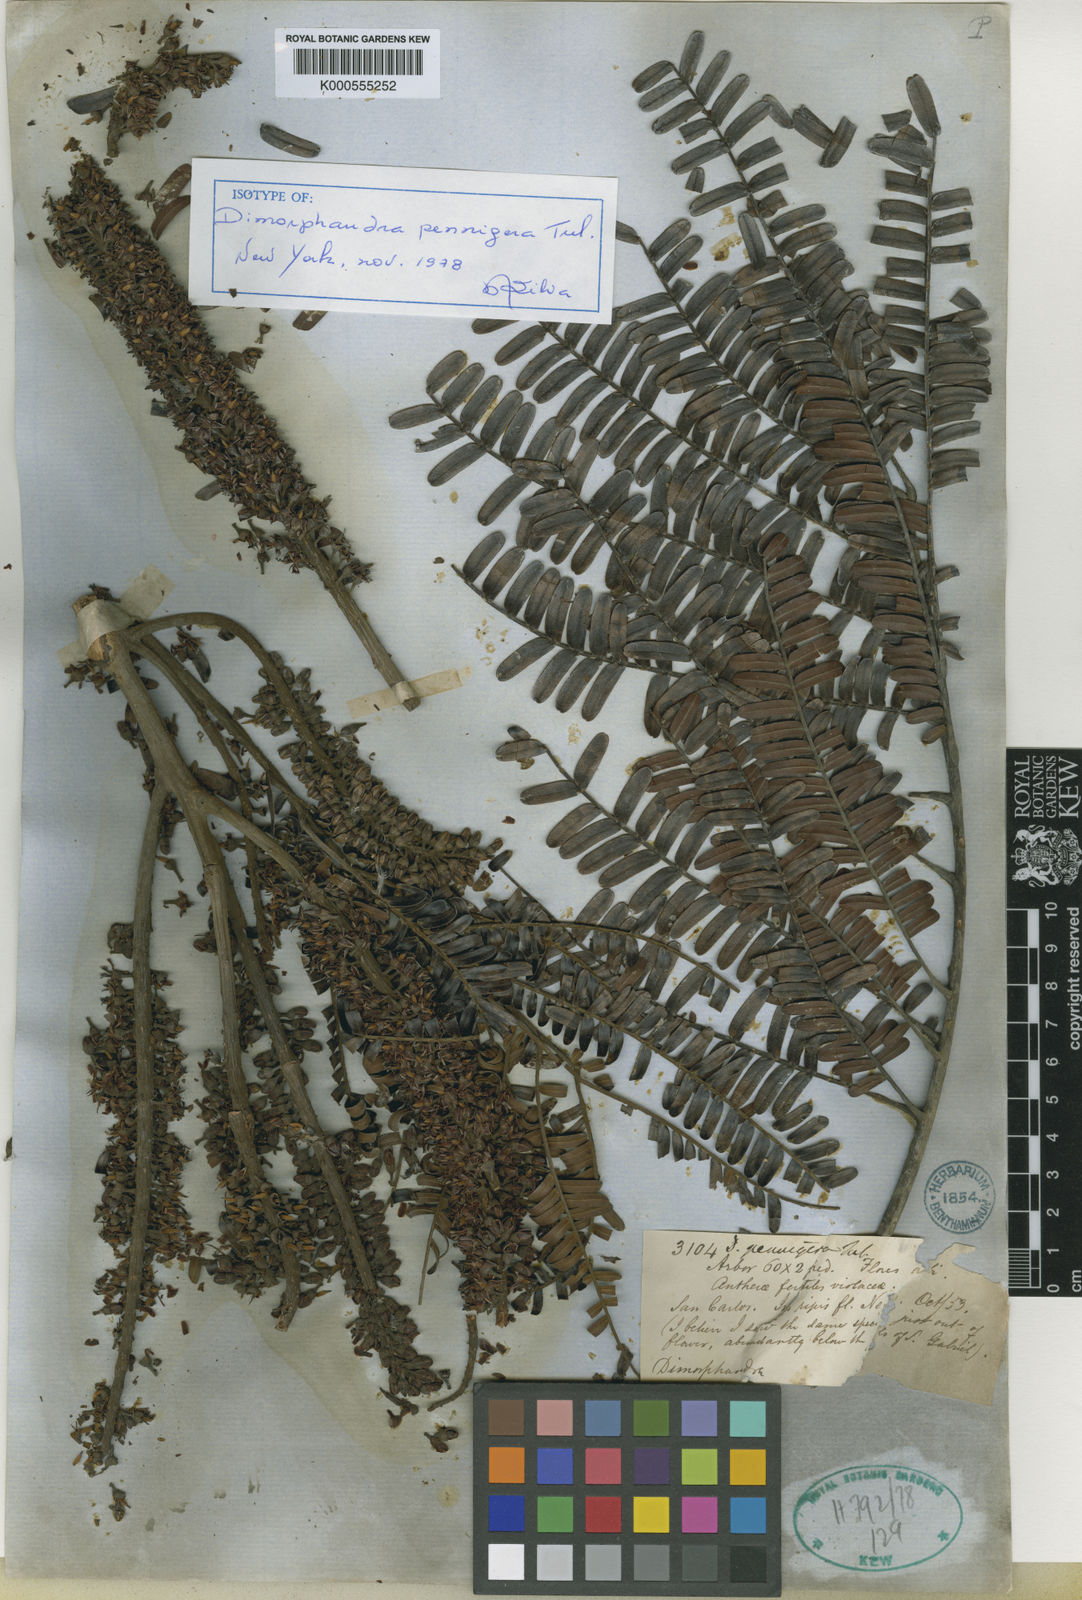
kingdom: Plantae
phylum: Tracheophyta
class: Magnoliopsida
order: Fabales
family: Fabaceae
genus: Dimorphandra
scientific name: Dimorphandra pennigera
